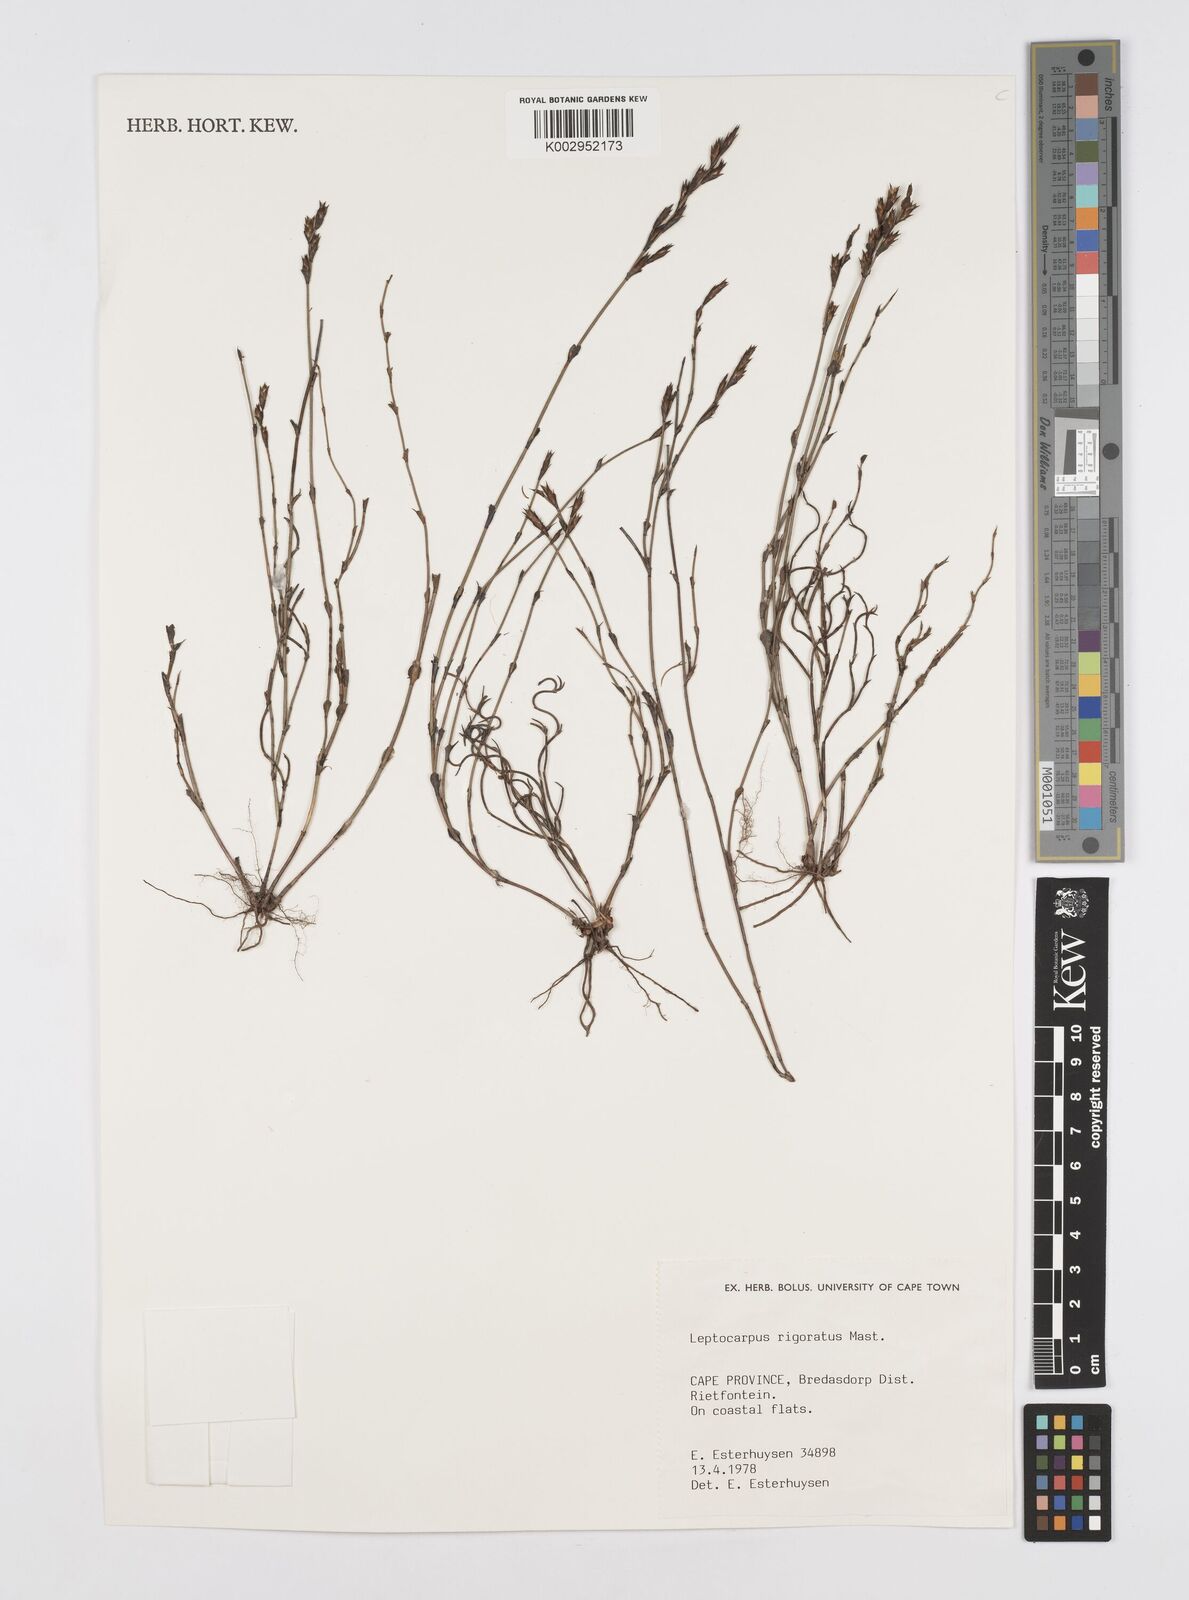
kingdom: Plantae
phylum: Tracheophyta
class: Liliopsida
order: Poales
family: Restionaceae
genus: Restio
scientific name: Restio rigoratus
